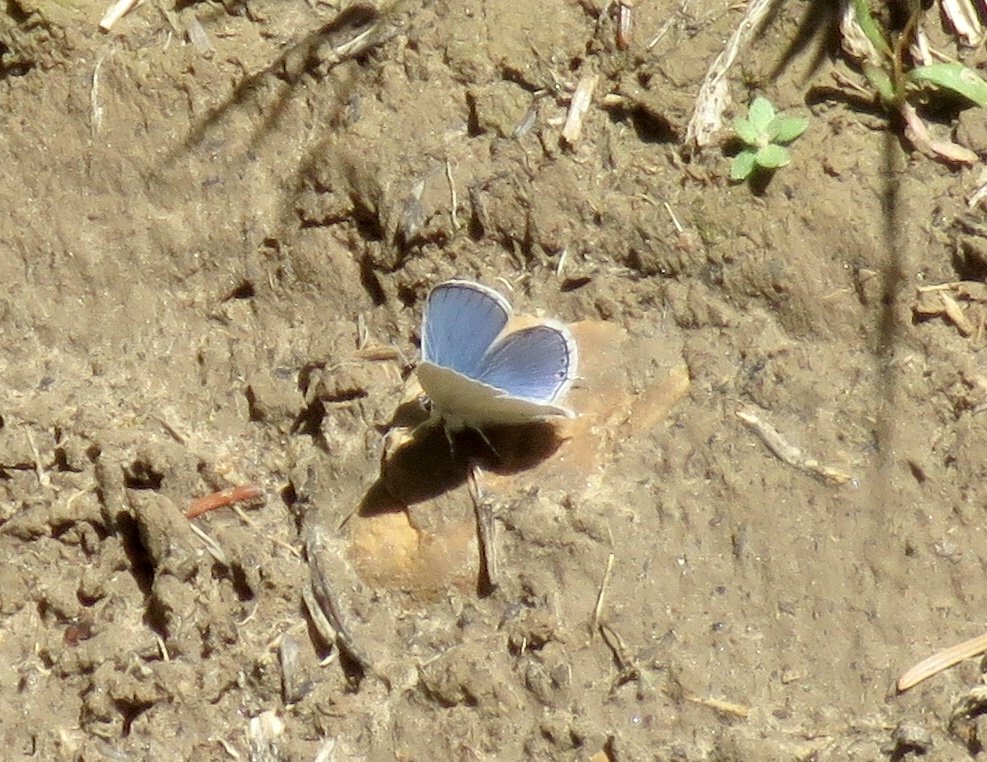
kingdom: Animalia
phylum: Arthropoda
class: Insecta
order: Lepidoptera
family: Lycaenidae
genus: Elkalyce
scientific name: Elkalyce amyntula
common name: Western Tailed-Blue
